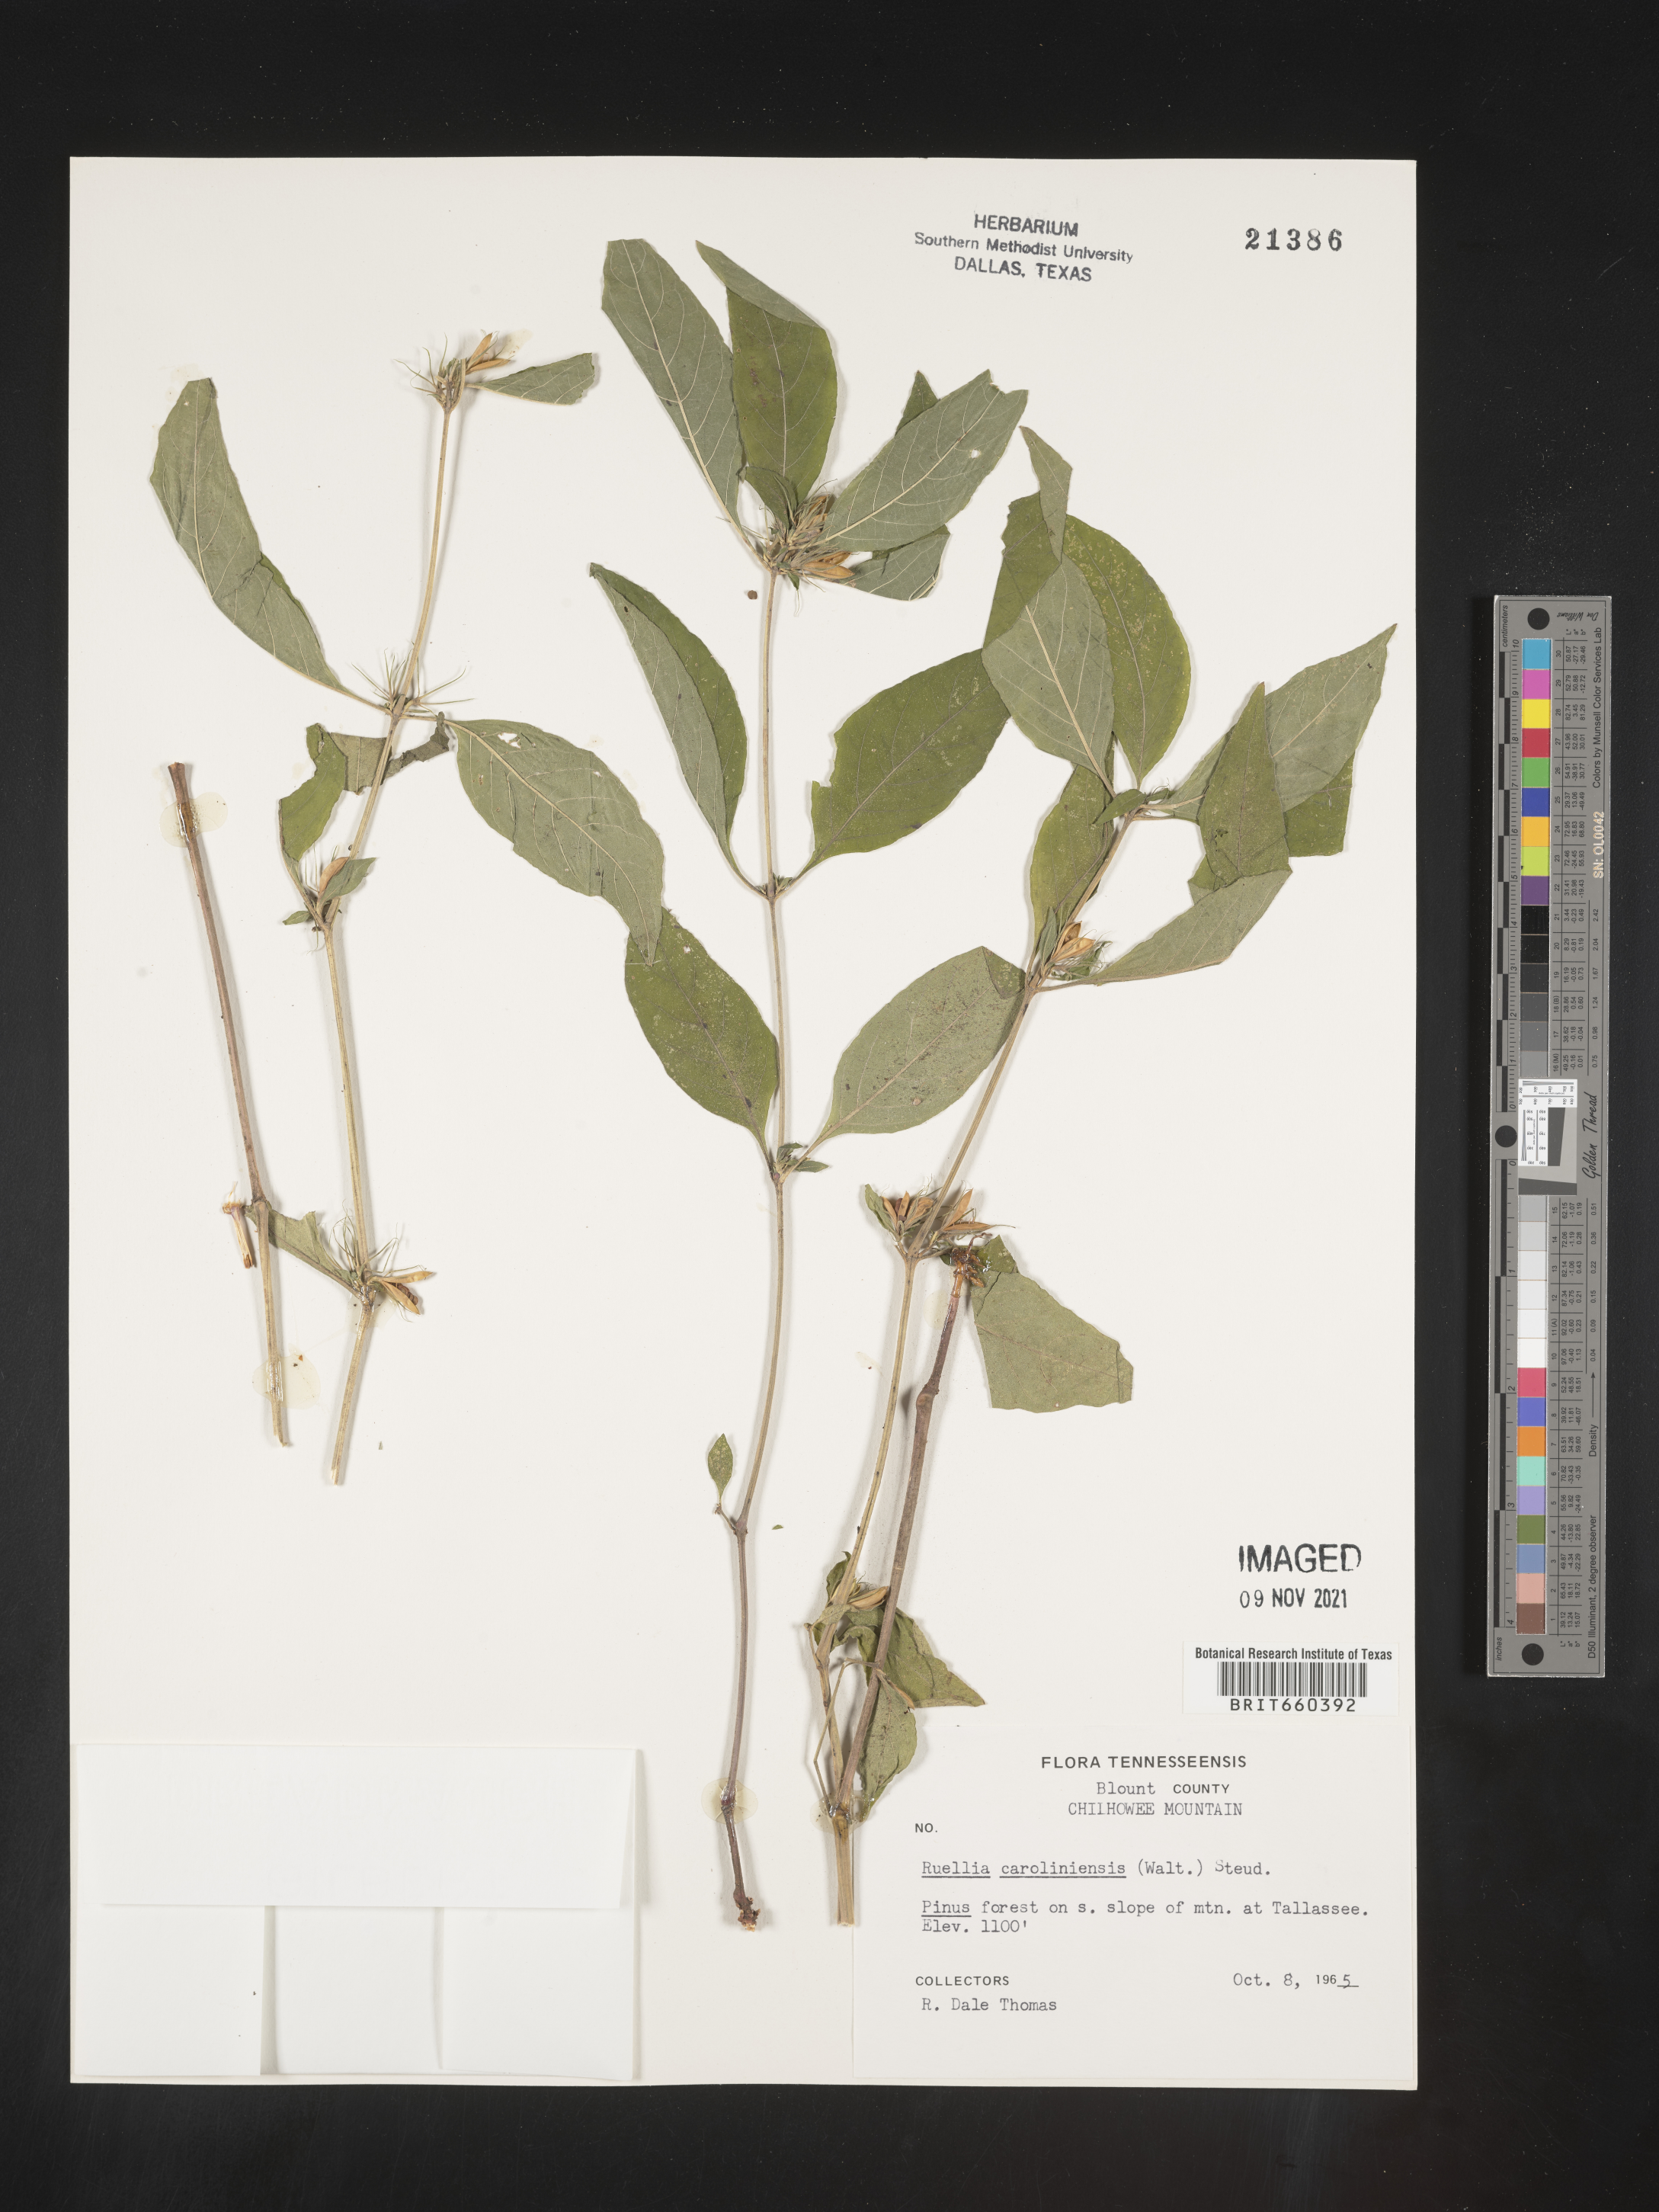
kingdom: Plantae
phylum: Tracheophyta
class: Magnoliopsida
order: Lamiales
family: Acanthaceae
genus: Ruellia
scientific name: Ruellia caroliniensis
